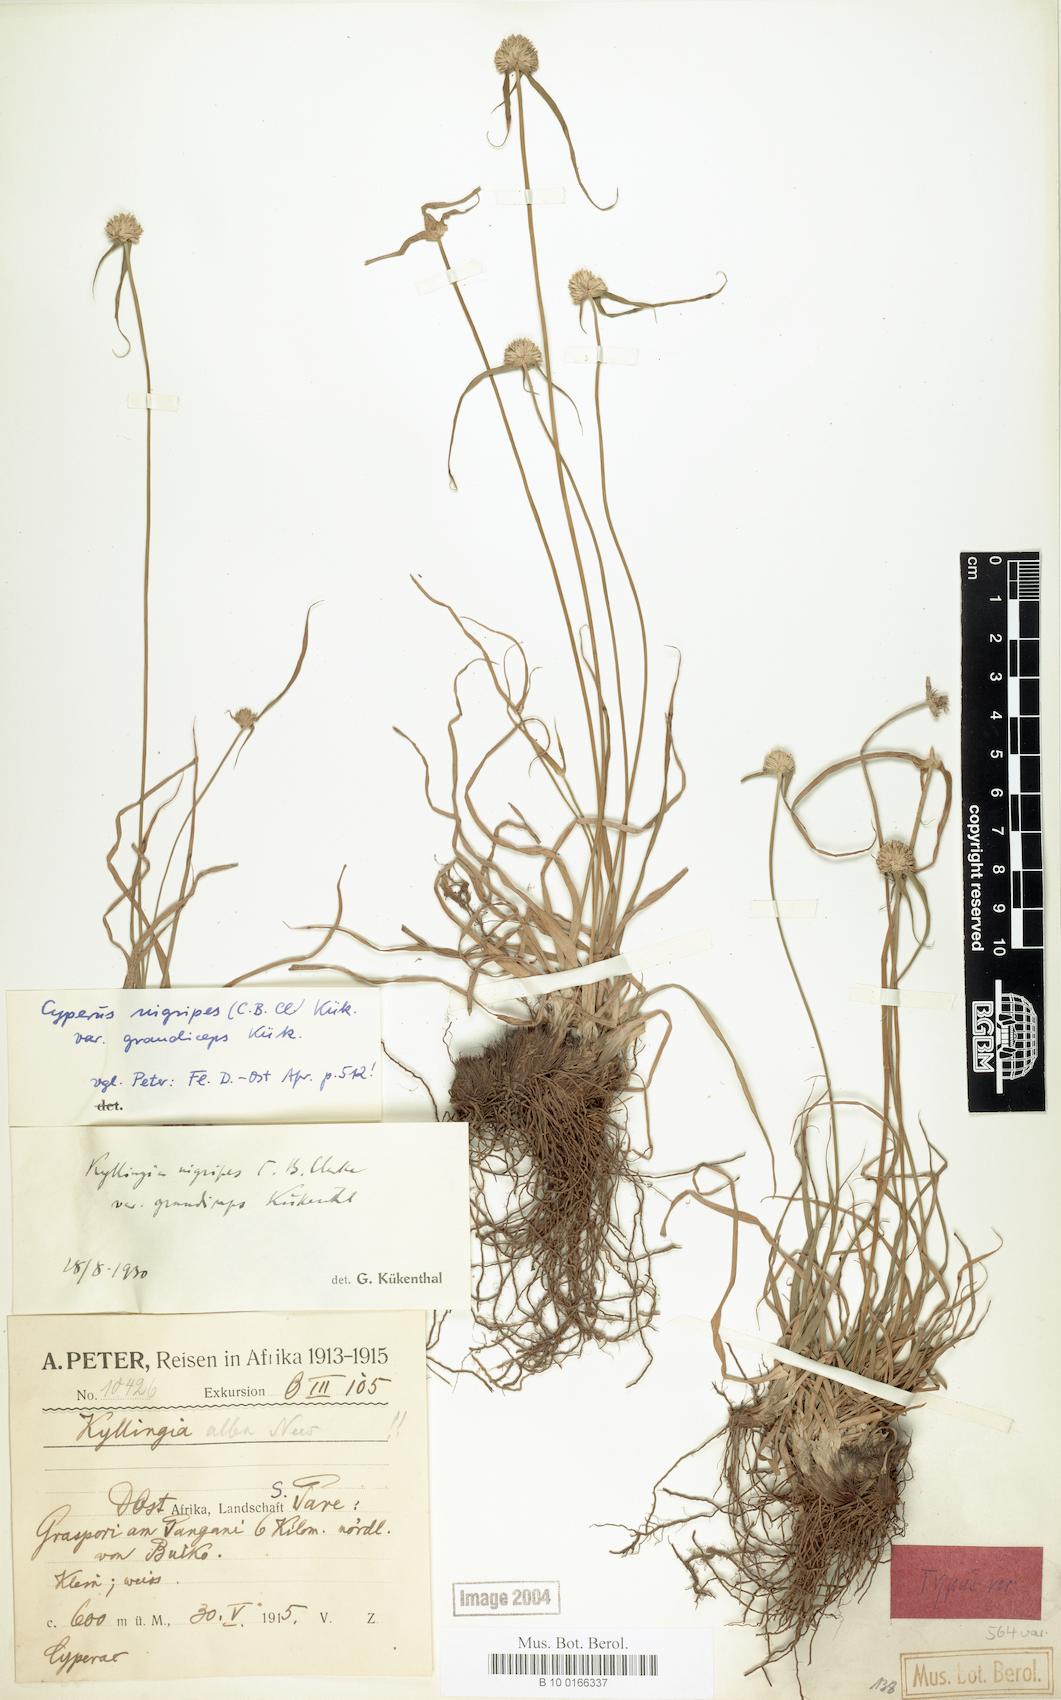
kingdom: Plantae
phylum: Tracheophyta
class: Liliopsida
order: Poales
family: Cyperaceae
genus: Cyperus
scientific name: Cyperus alatus
